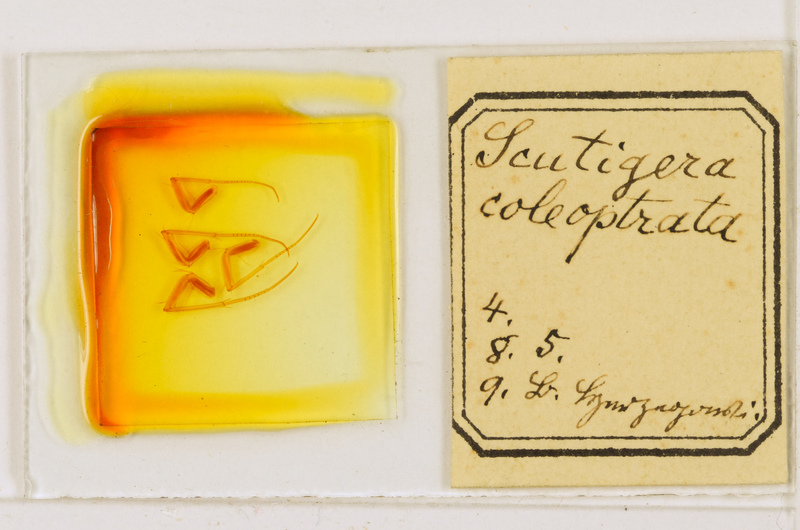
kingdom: Animalia
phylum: Arthropoda
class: Chilopoda
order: Scutigeromorpha
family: Scutigeridae
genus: Scutigera
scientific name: Scutigera coleoptrata
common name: House centipede
